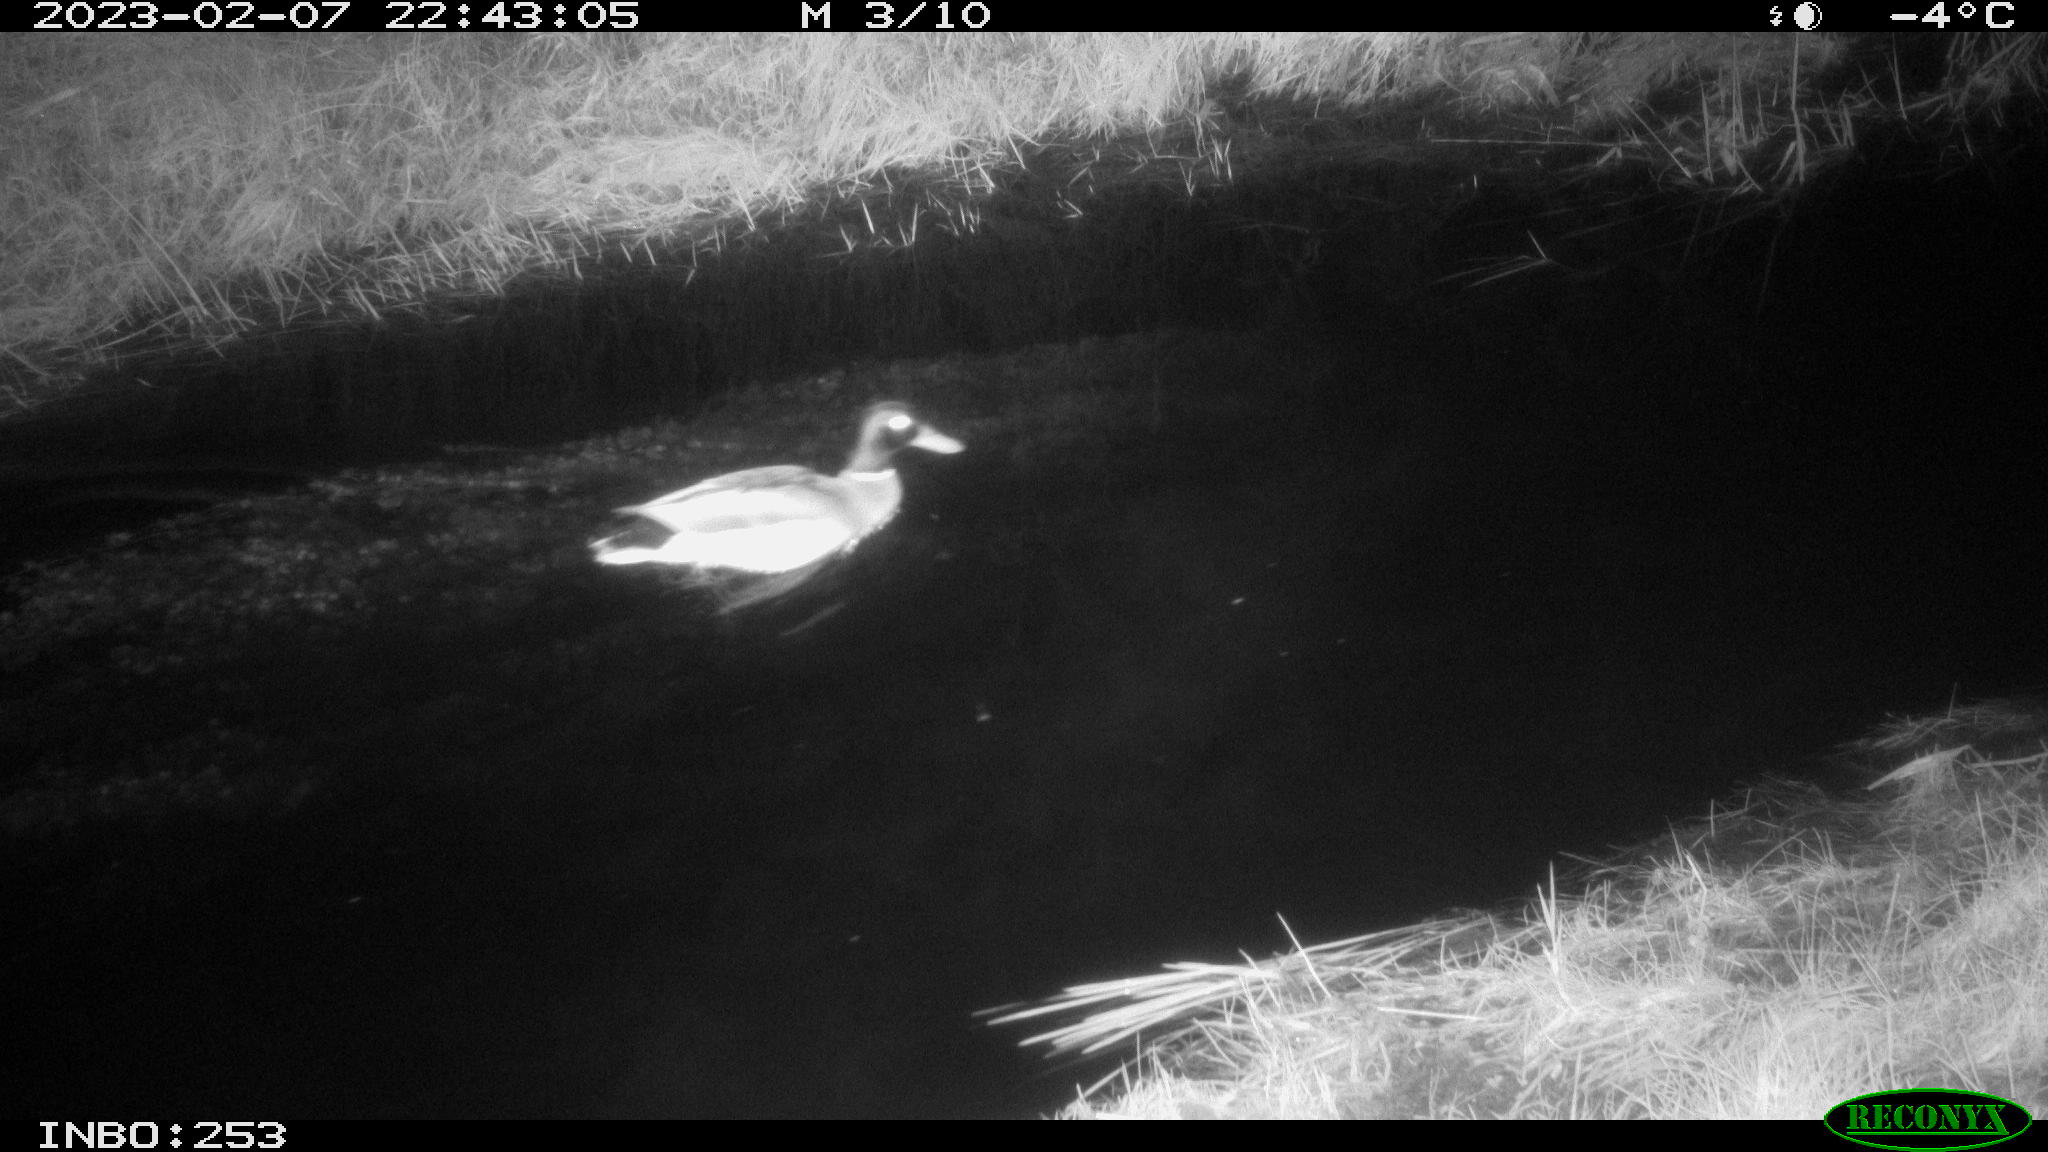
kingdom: Animalia
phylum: Chordata
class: Aves
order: Anseriformes
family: Anatidae
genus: Anas
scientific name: Anas
